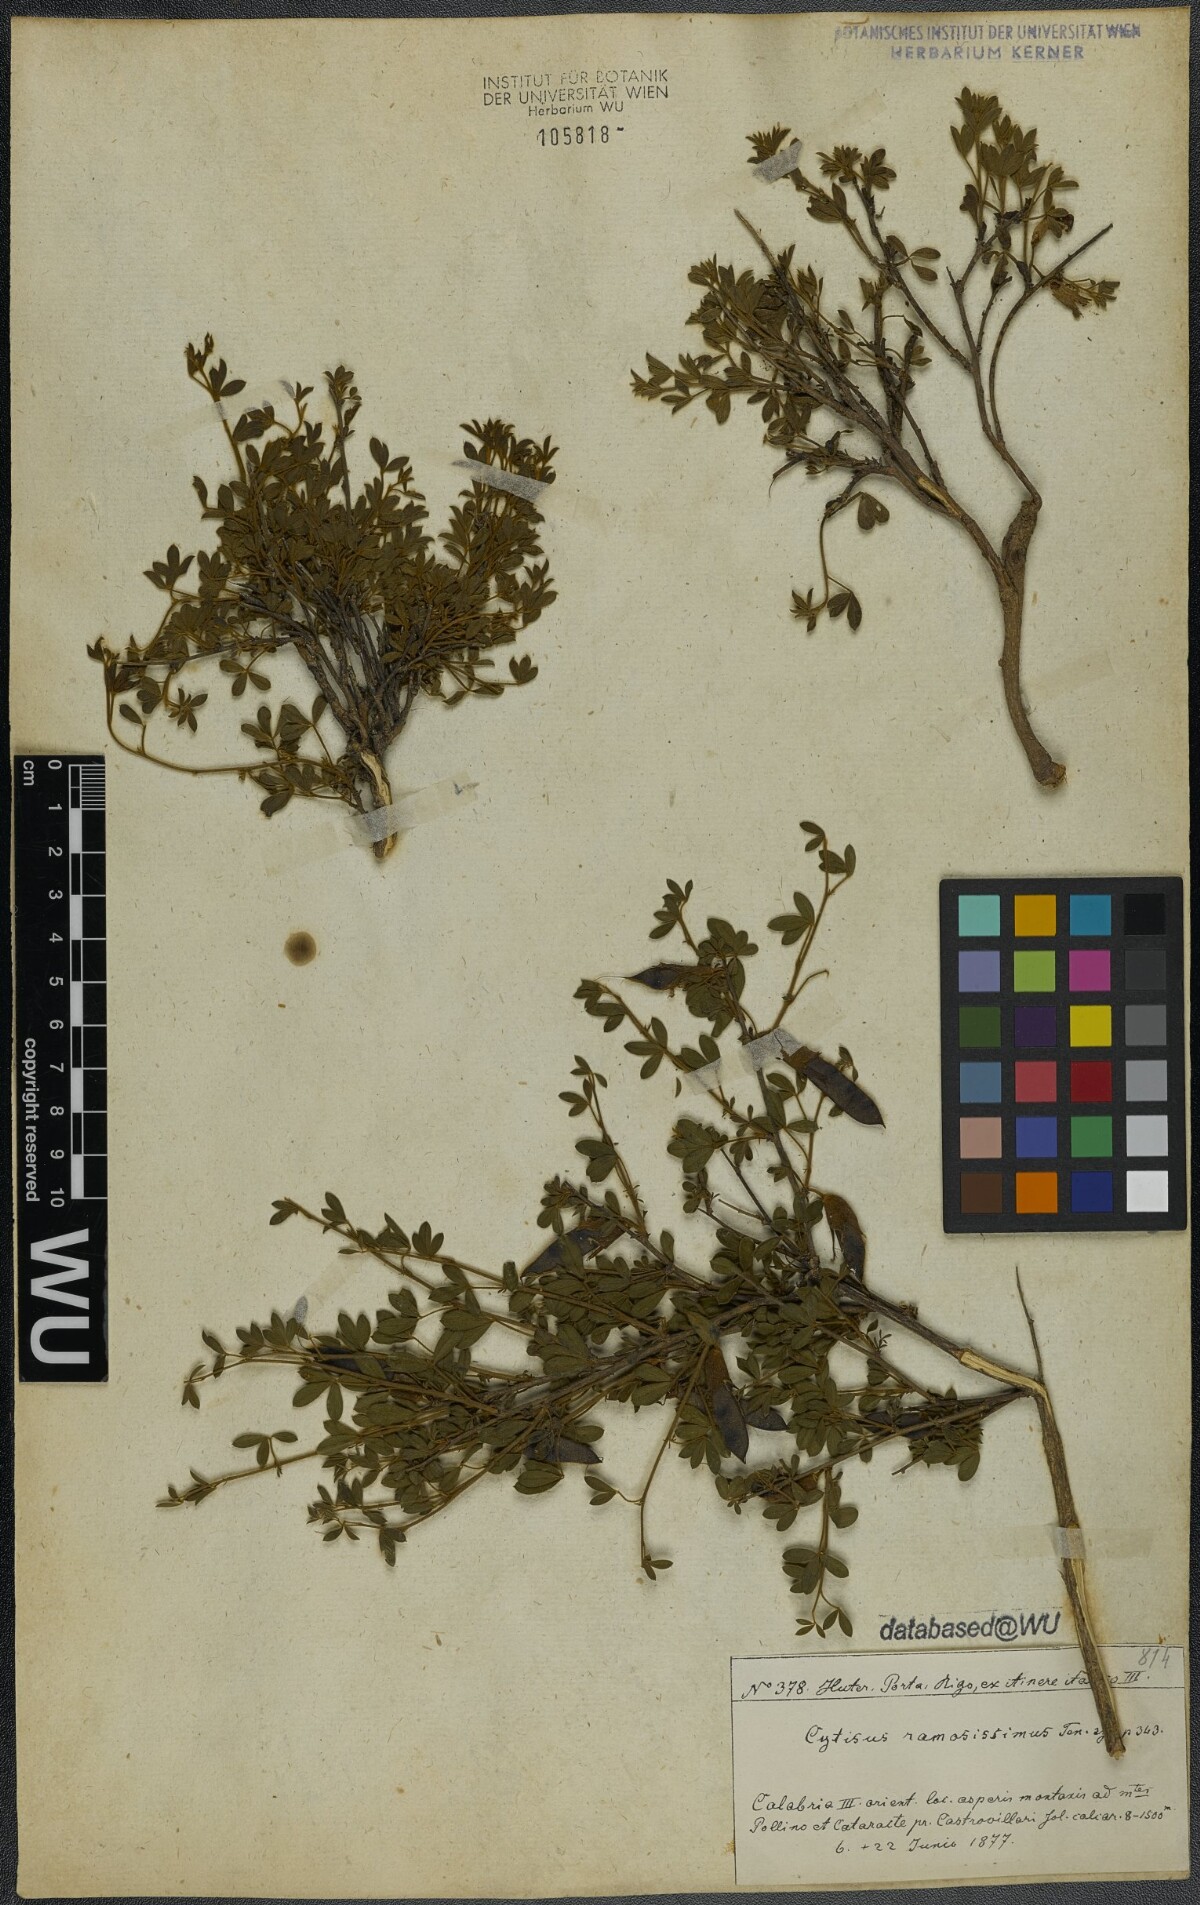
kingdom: Plantae
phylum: Tracheophyta
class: Magnoliopsida
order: Fabales
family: Fabaceae
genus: Chamaecytisus
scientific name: Chamaecytisus spinescens
